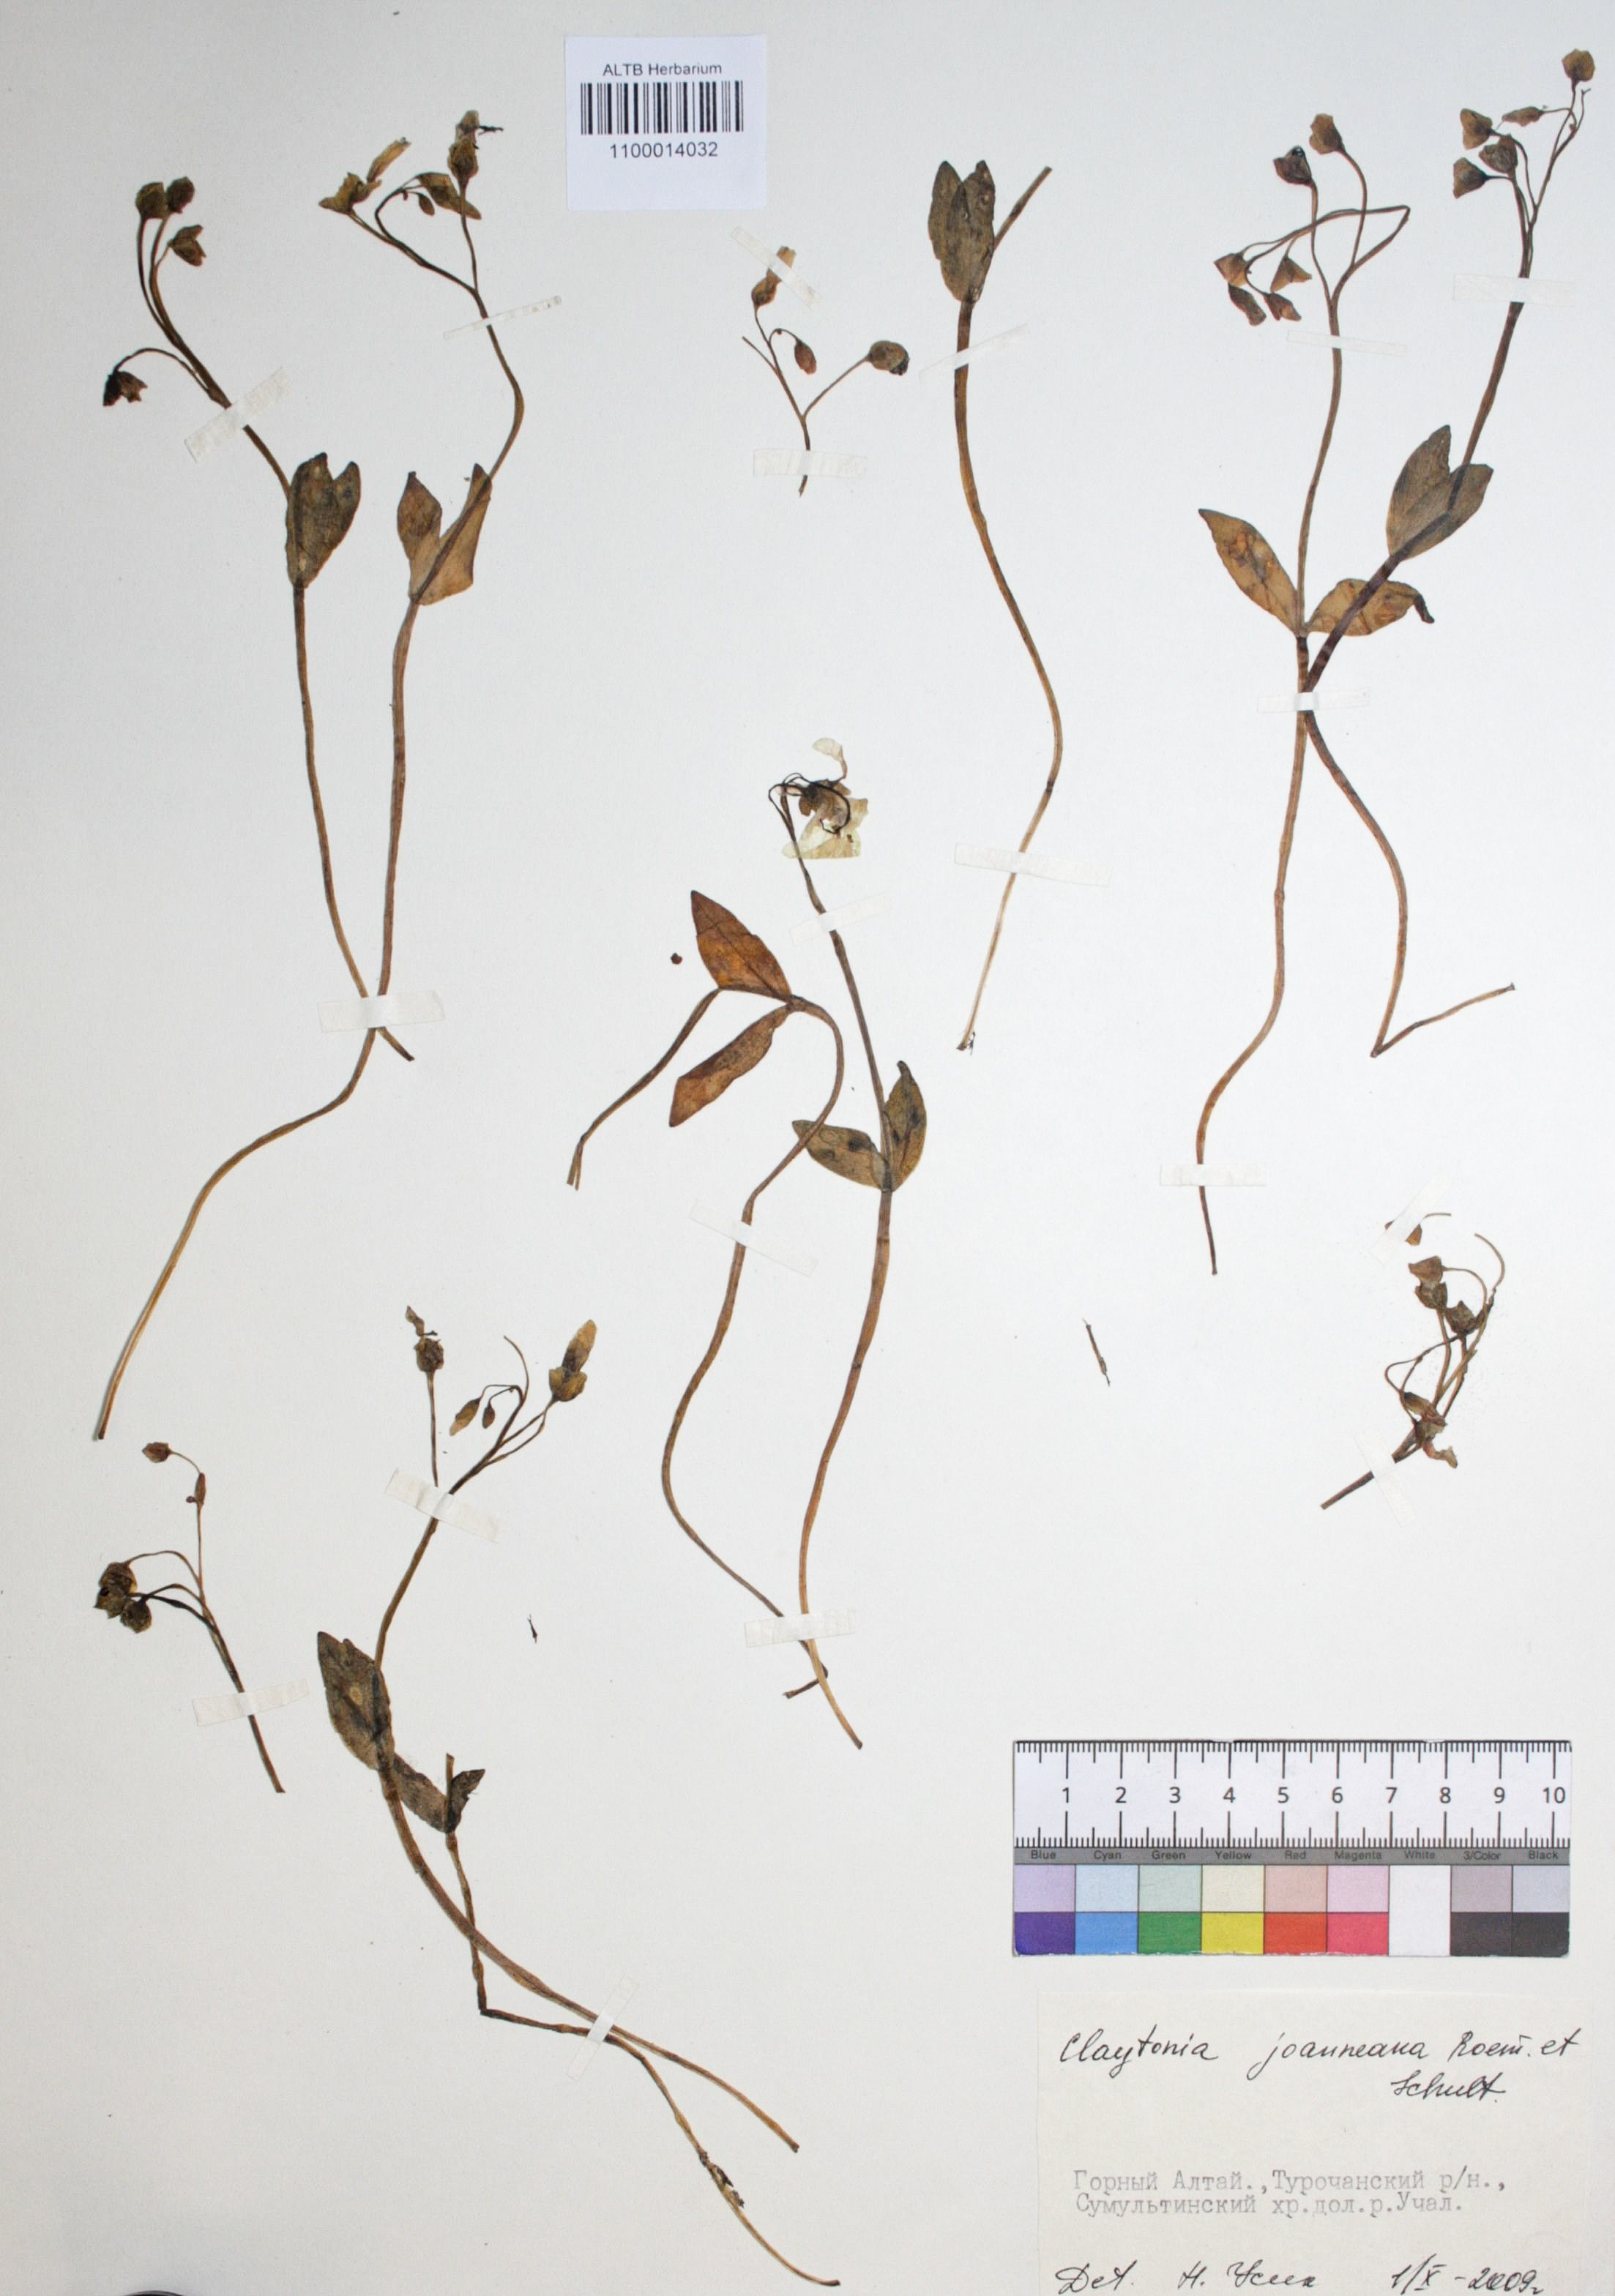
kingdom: Plantae
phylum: Tracheophyta
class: Magnoliopsida
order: Caryophyllales
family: Montiaceae
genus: Claytonia
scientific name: Claytonia joanneana
